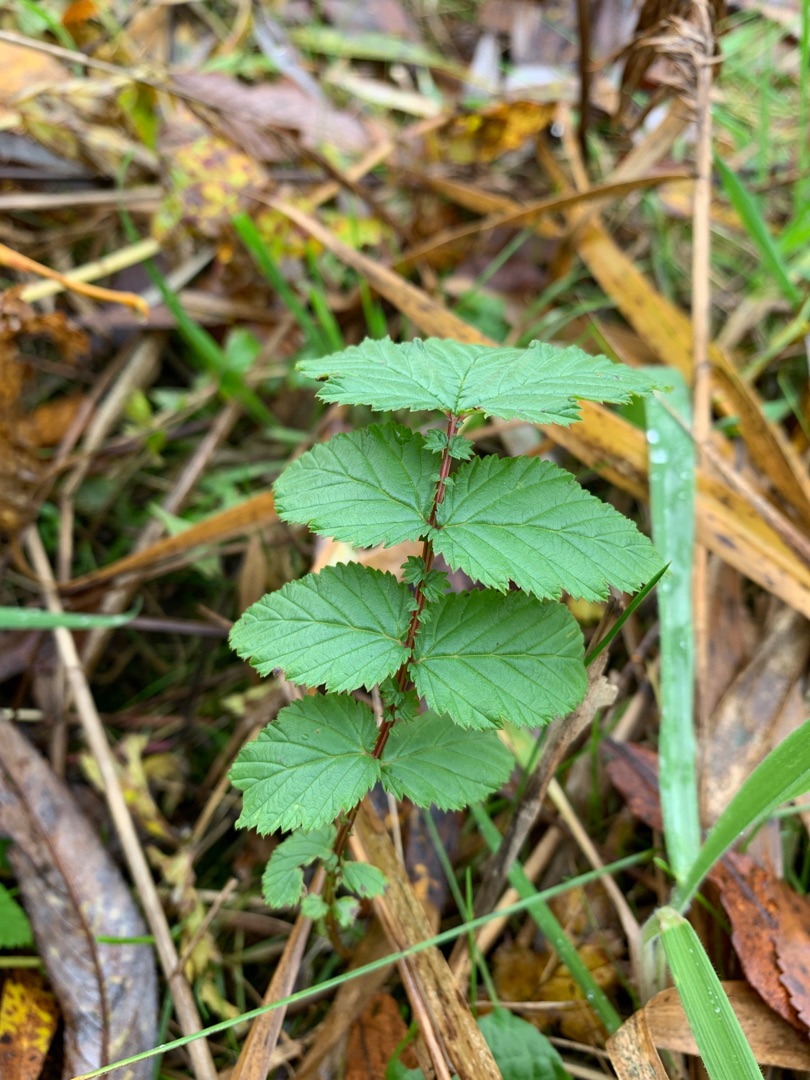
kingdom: Plantae
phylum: Tracheophyta
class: Magnoliopsida
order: Rosales
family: Rosaceae
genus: Filipendula
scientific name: Filipendula ulmaria
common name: Almindelig mjødurt
